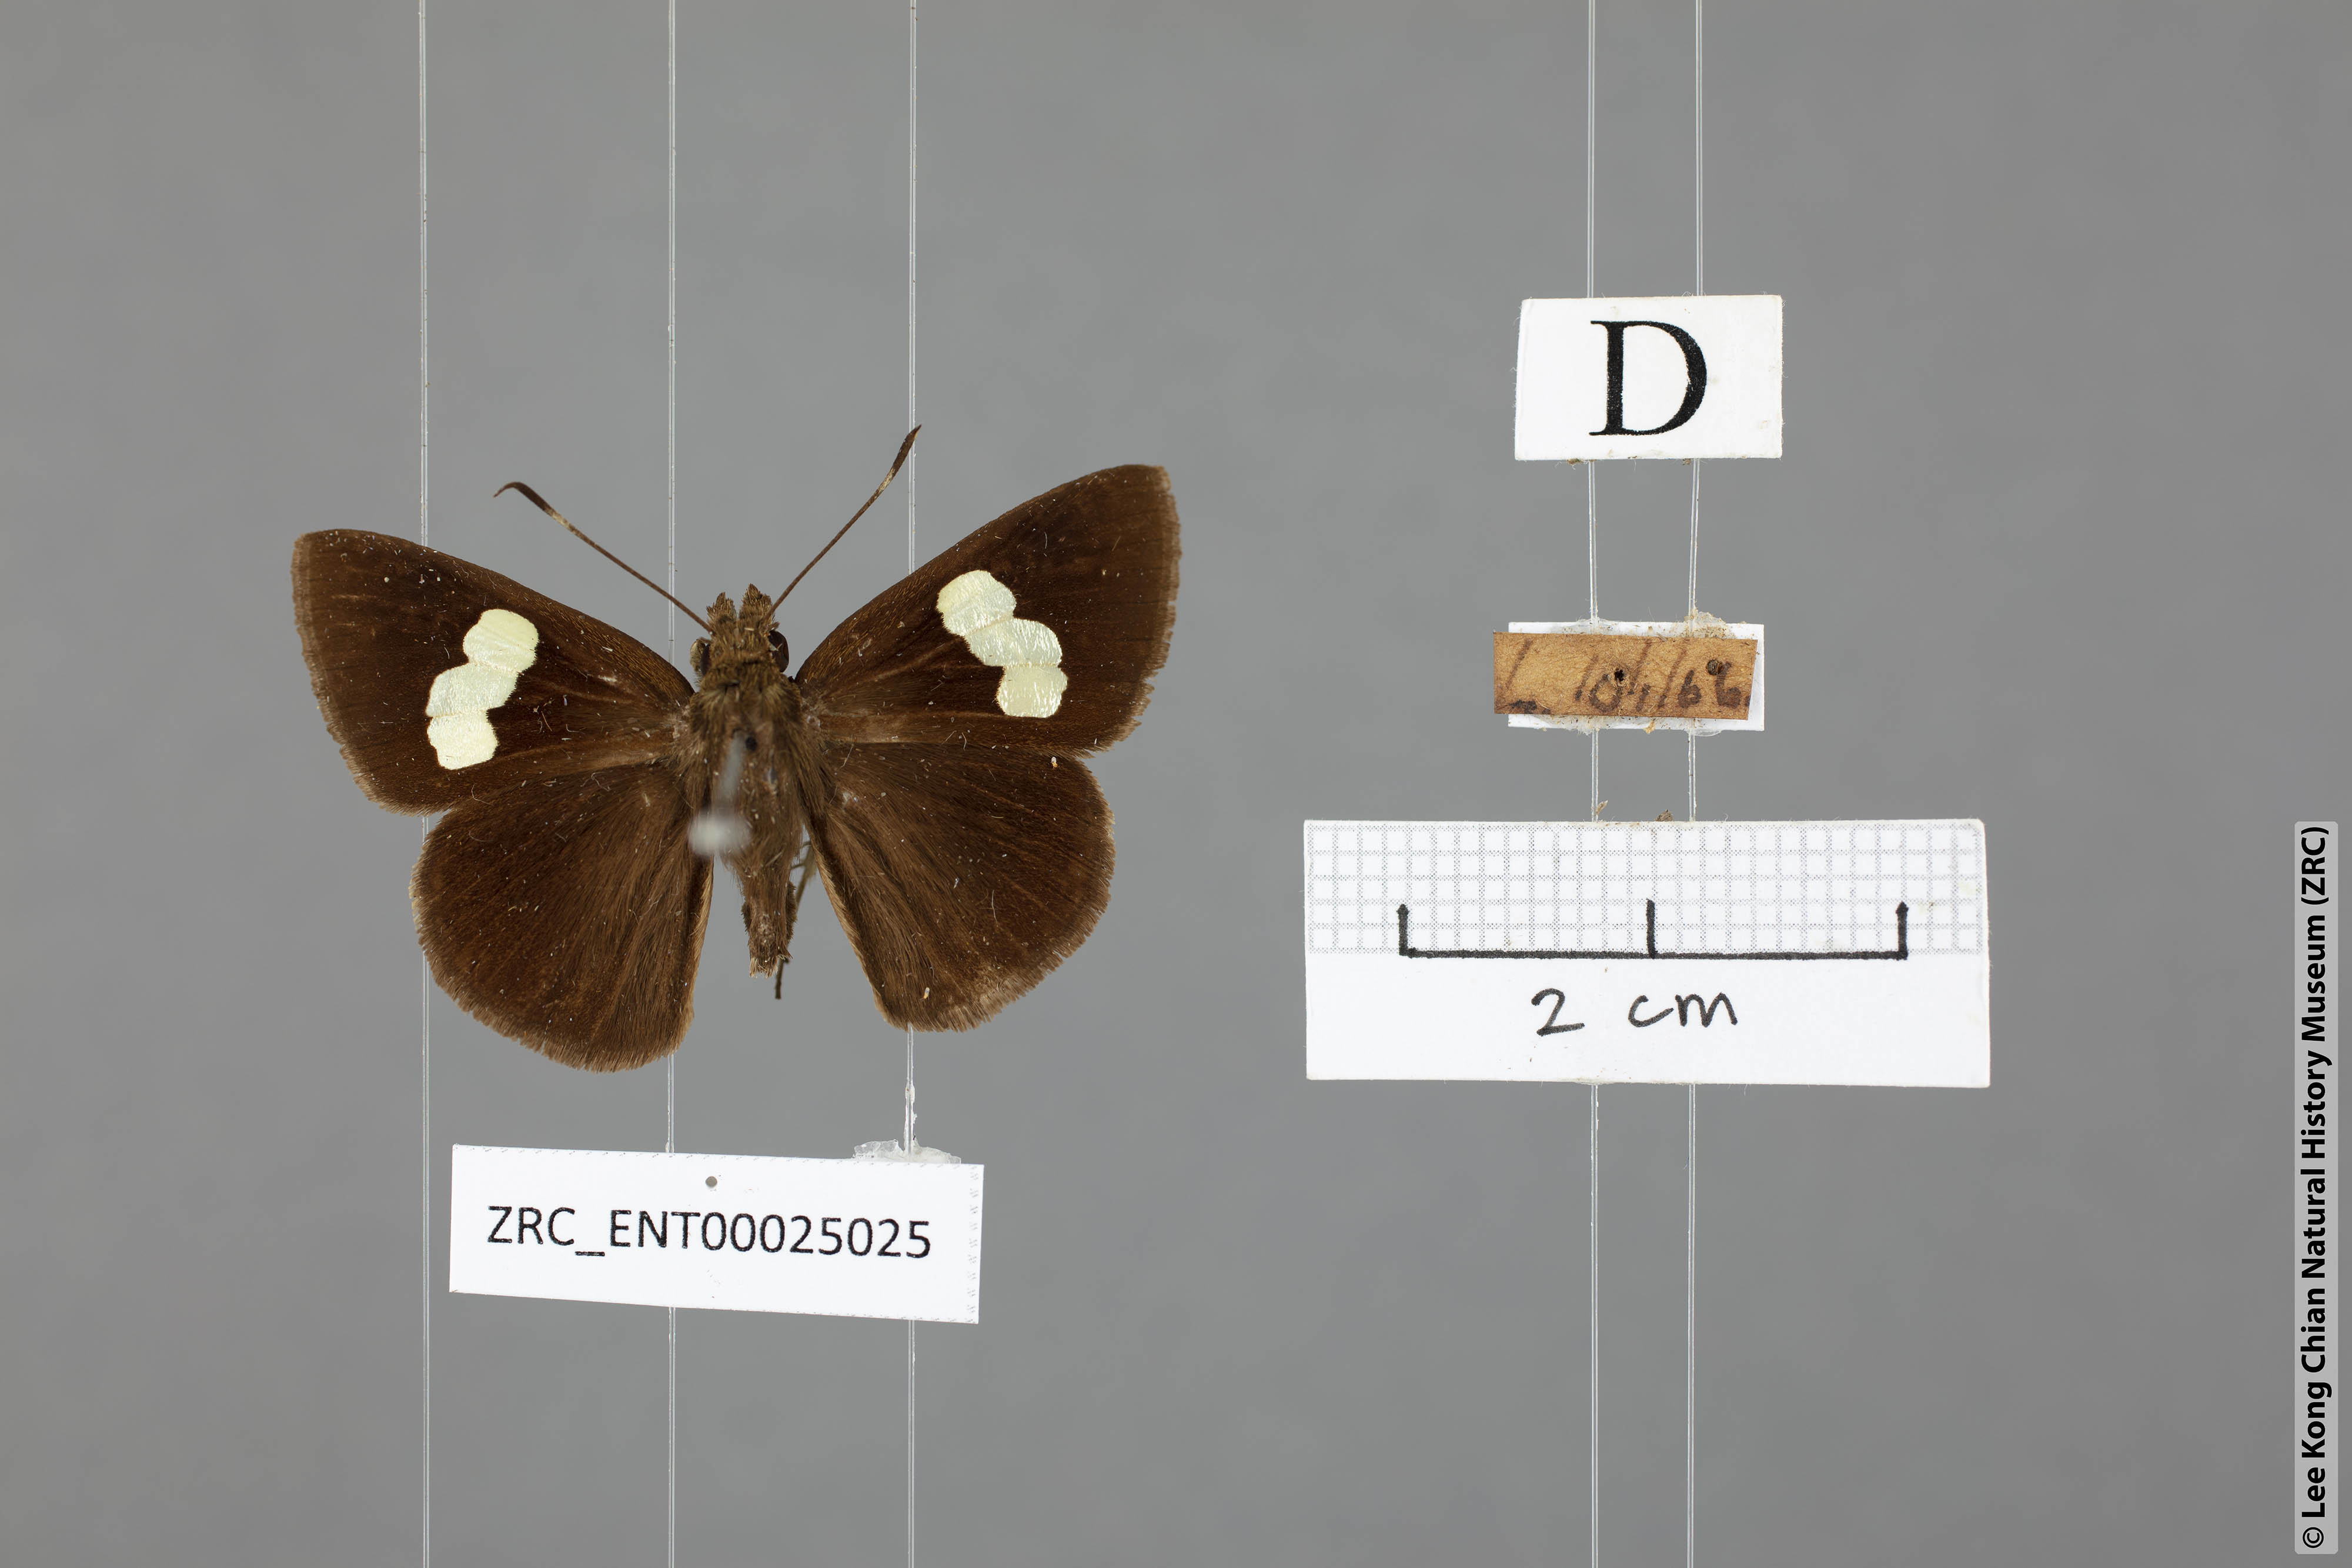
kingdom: Animalia
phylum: Arthropoda
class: Insecta
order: Lepidoptera
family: Hesperiidae
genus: Notocrypta
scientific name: Notocrypta paralysos
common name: Common banded demon
